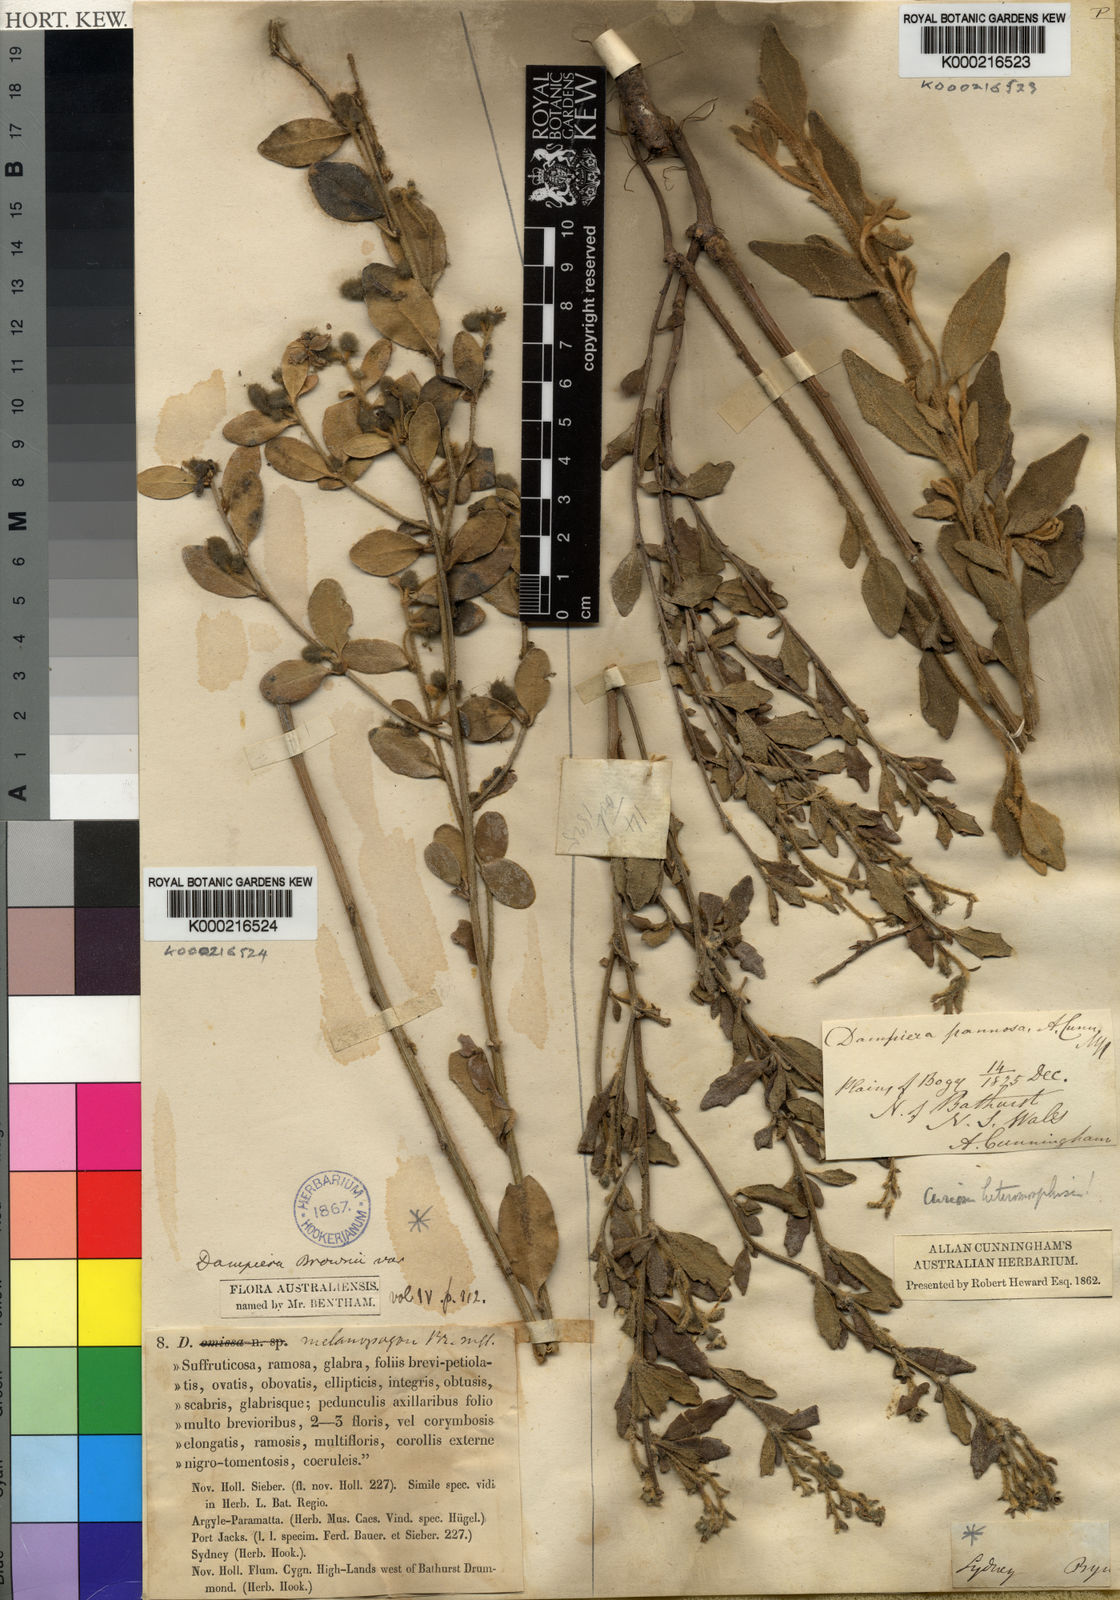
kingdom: Plantae
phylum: Tracheophyta
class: Magnoliopsida
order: Asterales
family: Goodeniaceae
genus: Dampiera
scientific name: Dampiera purpurea
